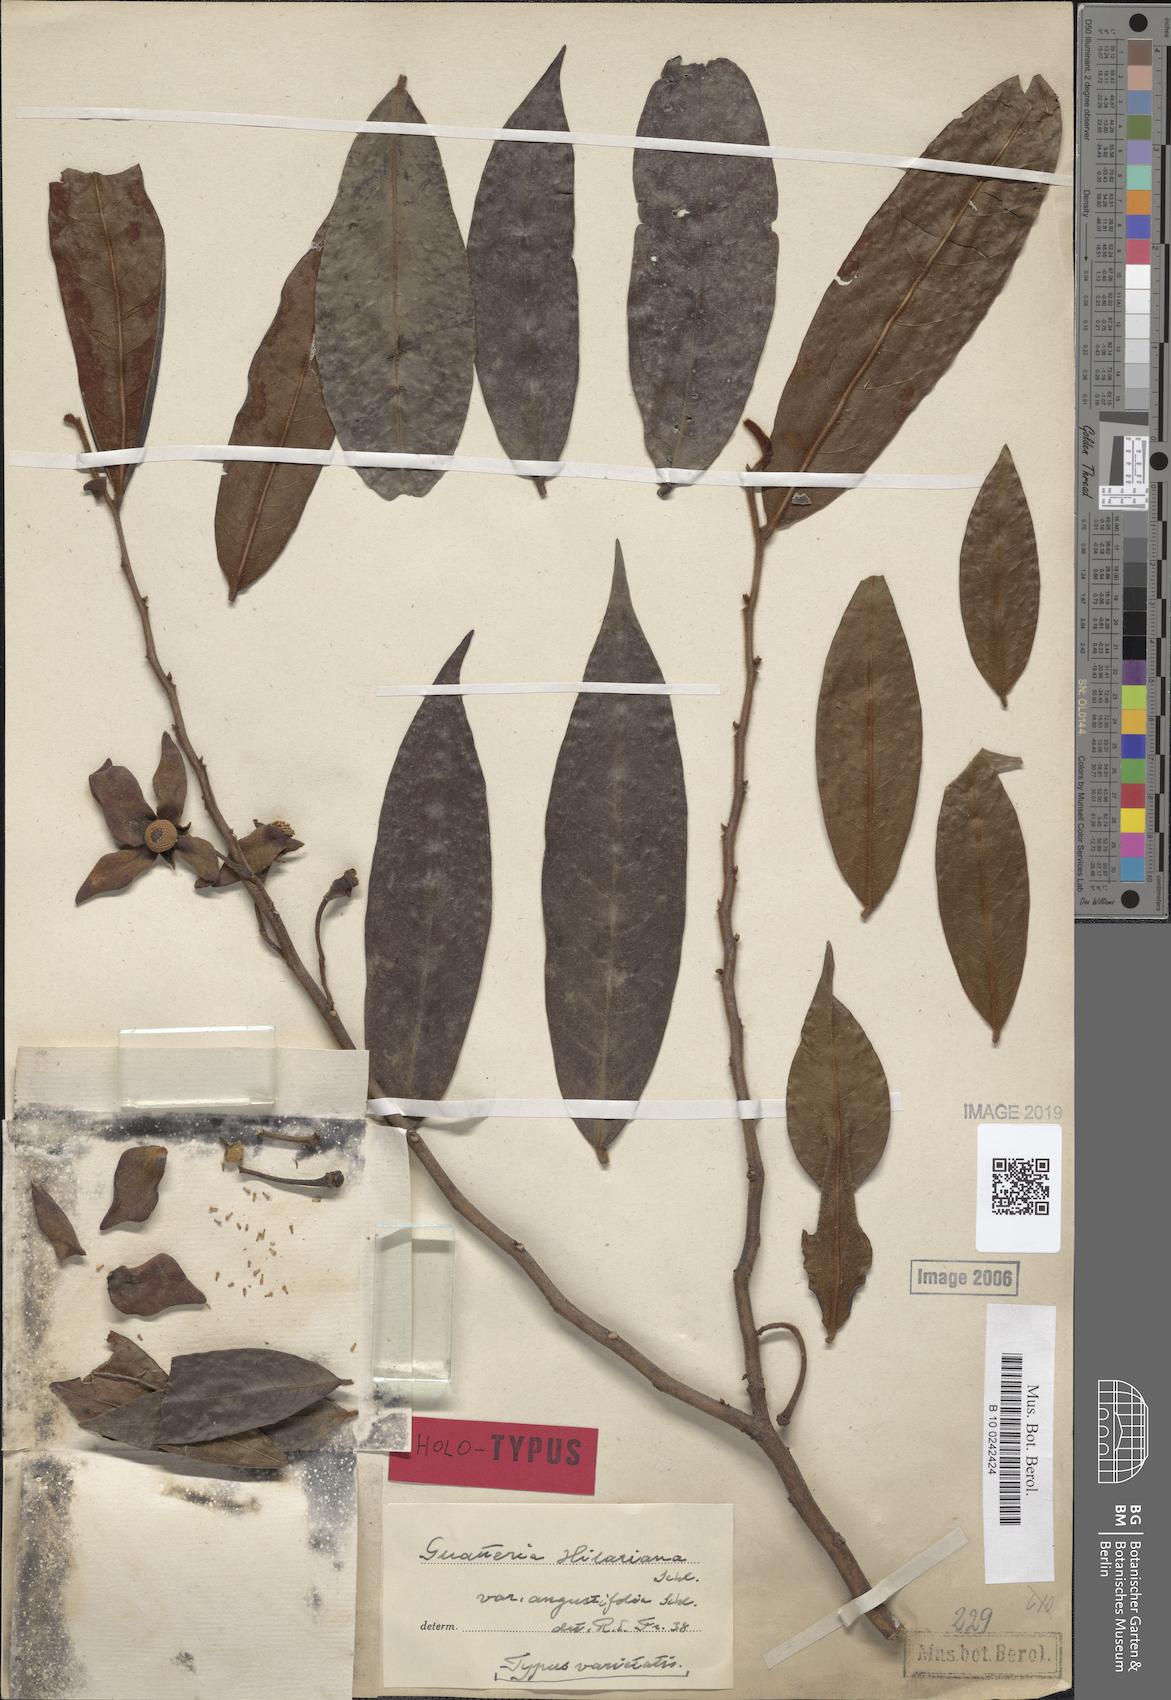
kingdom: Plantae
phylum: Tracheophyta
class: Magnoliopsida
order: Magnoliales
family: Annonaceae
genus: Guatteria
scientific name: Guatteria australis
